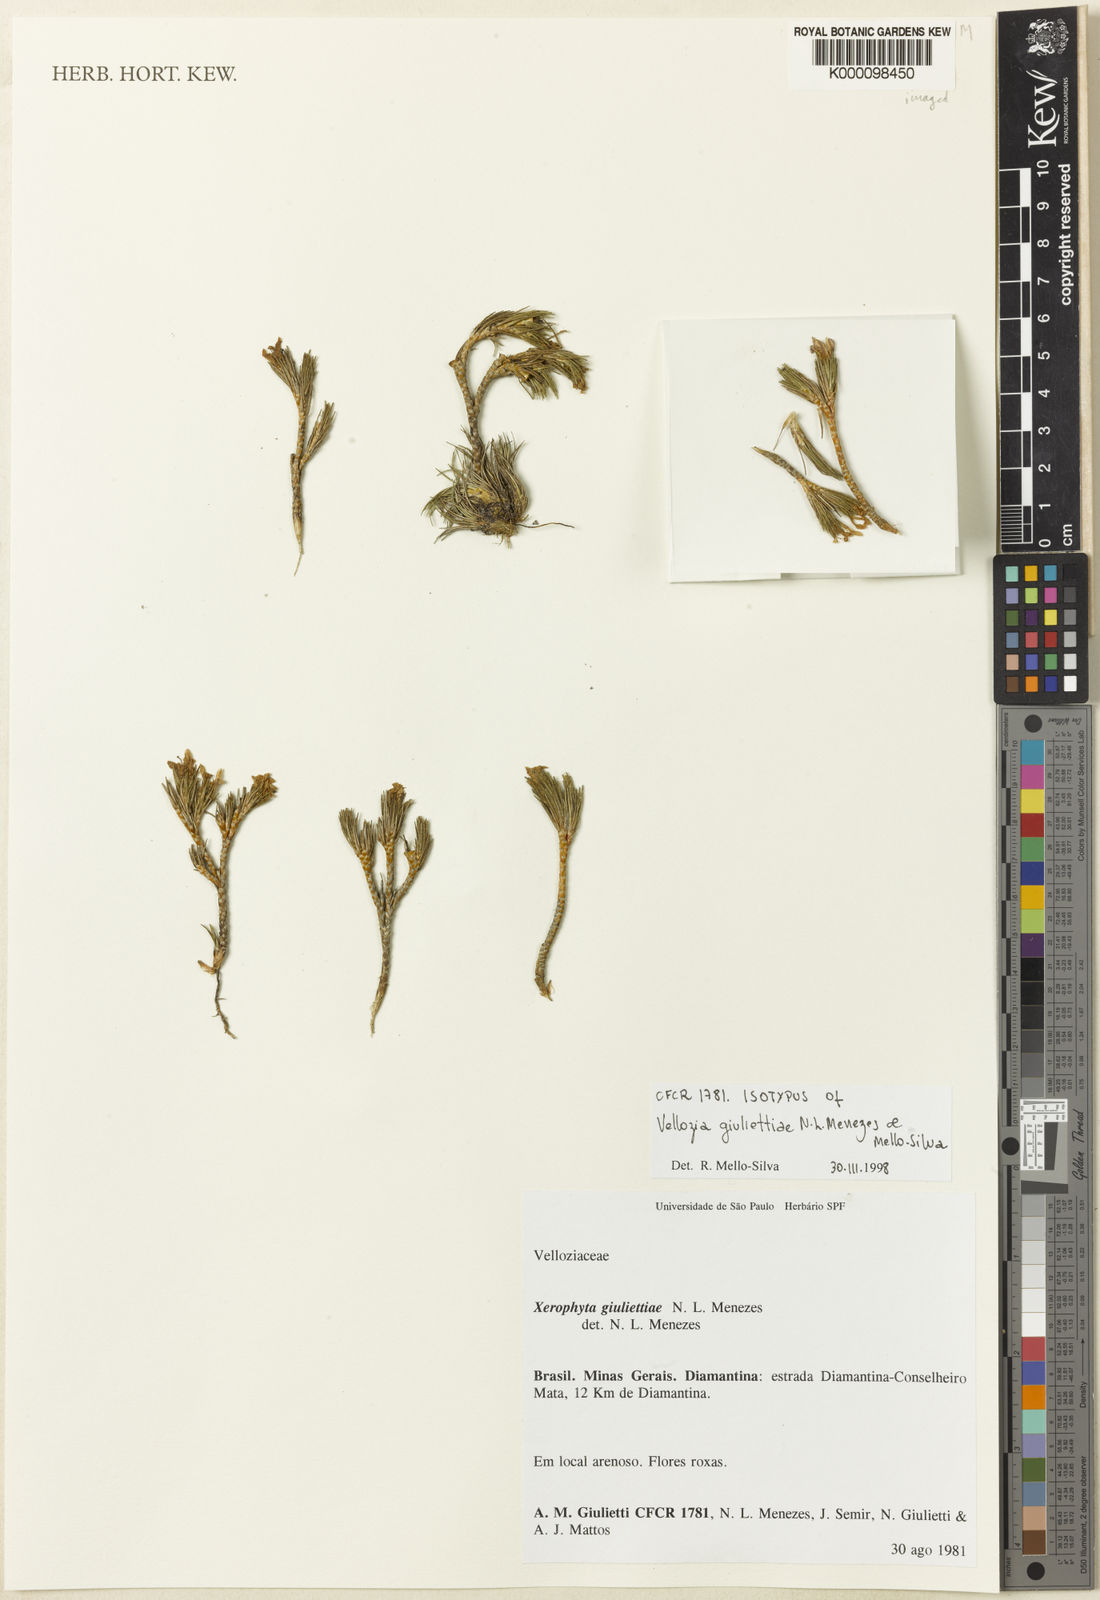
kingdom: Plantae
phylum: Tracheophyta
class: Liliopsida
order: Pandanales
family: Velloziaceae
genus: Vellozia
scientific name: Vellozia
